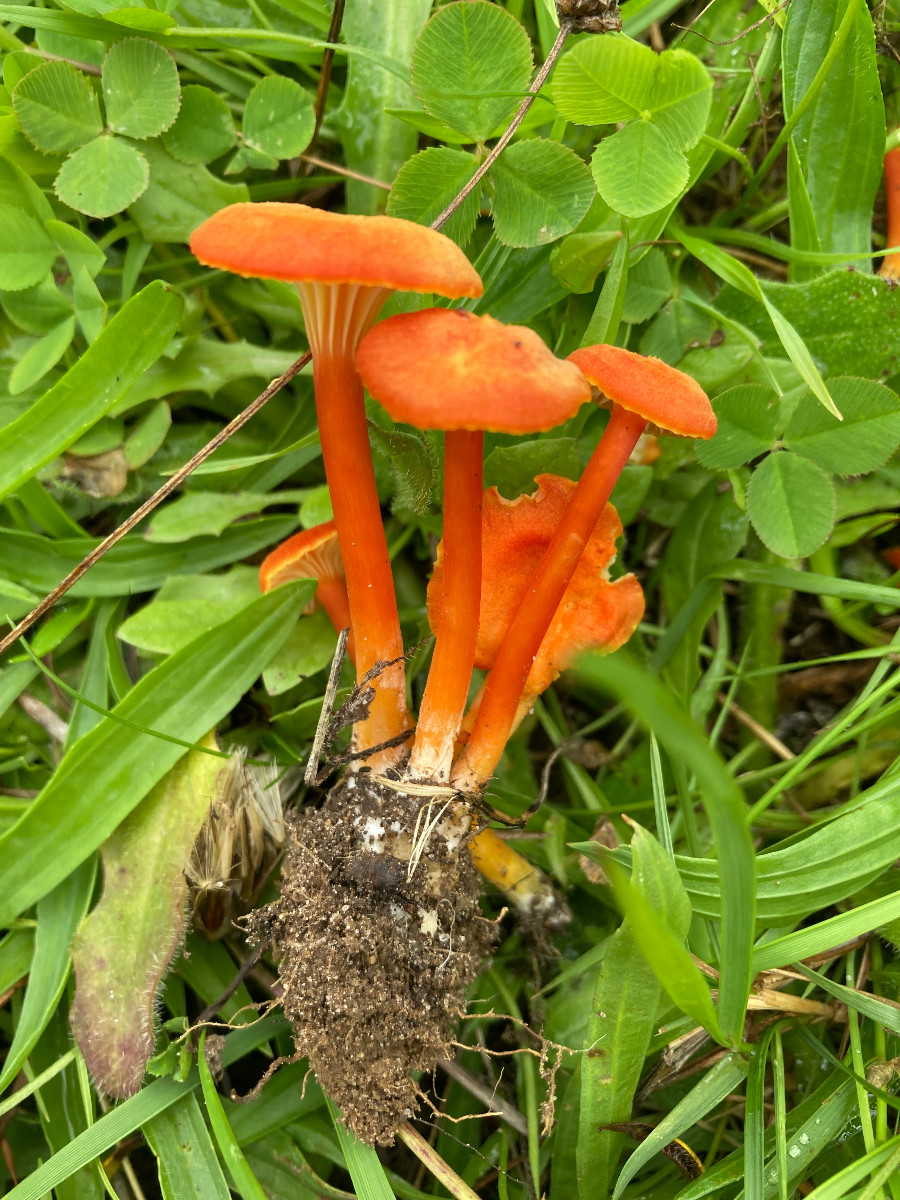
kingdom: Fungi
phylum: Basidiomycota
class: Agaricomycetes
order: Agaricales
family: Hygrophoraceae
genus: Hygrocybe
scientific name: Hygrocybe cantharellus
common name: kantarel-vokshat
